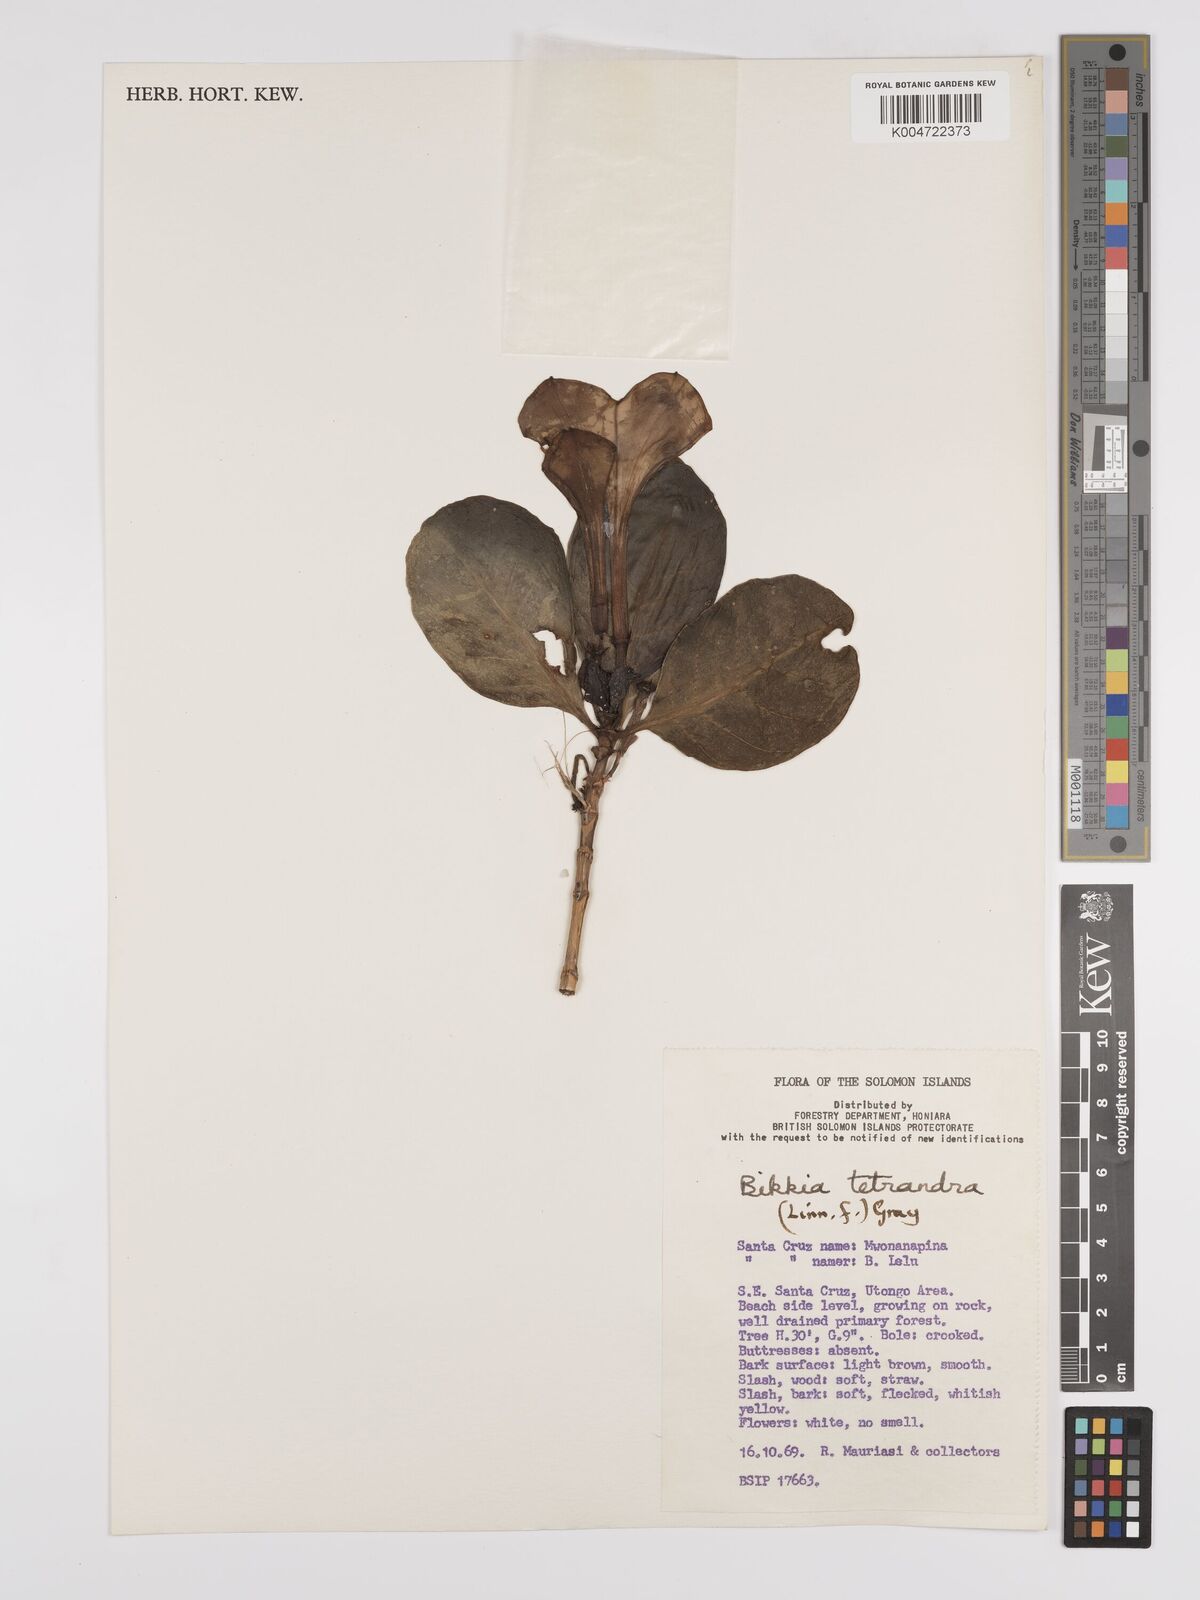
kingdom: Plantae
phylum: Tracheophyta
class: Magnoliopsida
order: Gentianales
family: Rubiaceae
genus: Bikkia
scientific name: Bikkia
